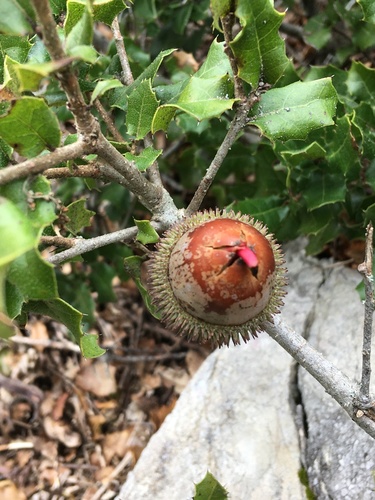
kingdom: Plantae
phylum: Tracheophyta
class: Magnoliopsida
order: Fagales
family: Fagaceae
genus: Quercus
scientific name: Quercus coccifera
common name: Kermes oak
